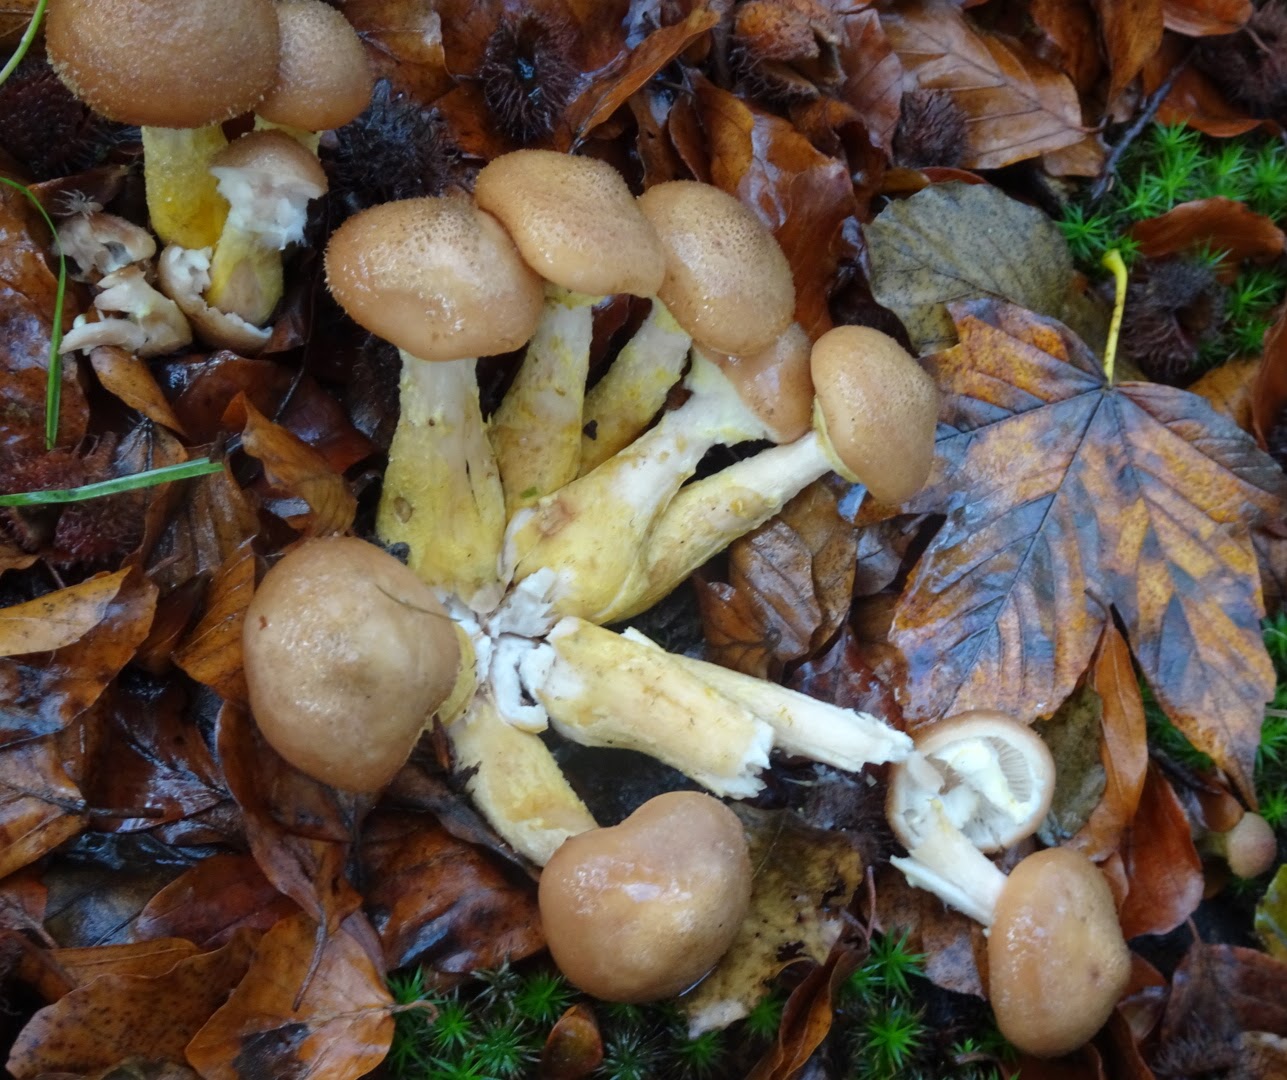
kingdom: Fungi
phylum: Basidiomycota
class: Agaricomycetes
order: Agaricales
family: Physalacriaceae
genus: Armillaria
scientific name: Armillaria lutea
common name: køllestokket honningsvamp
